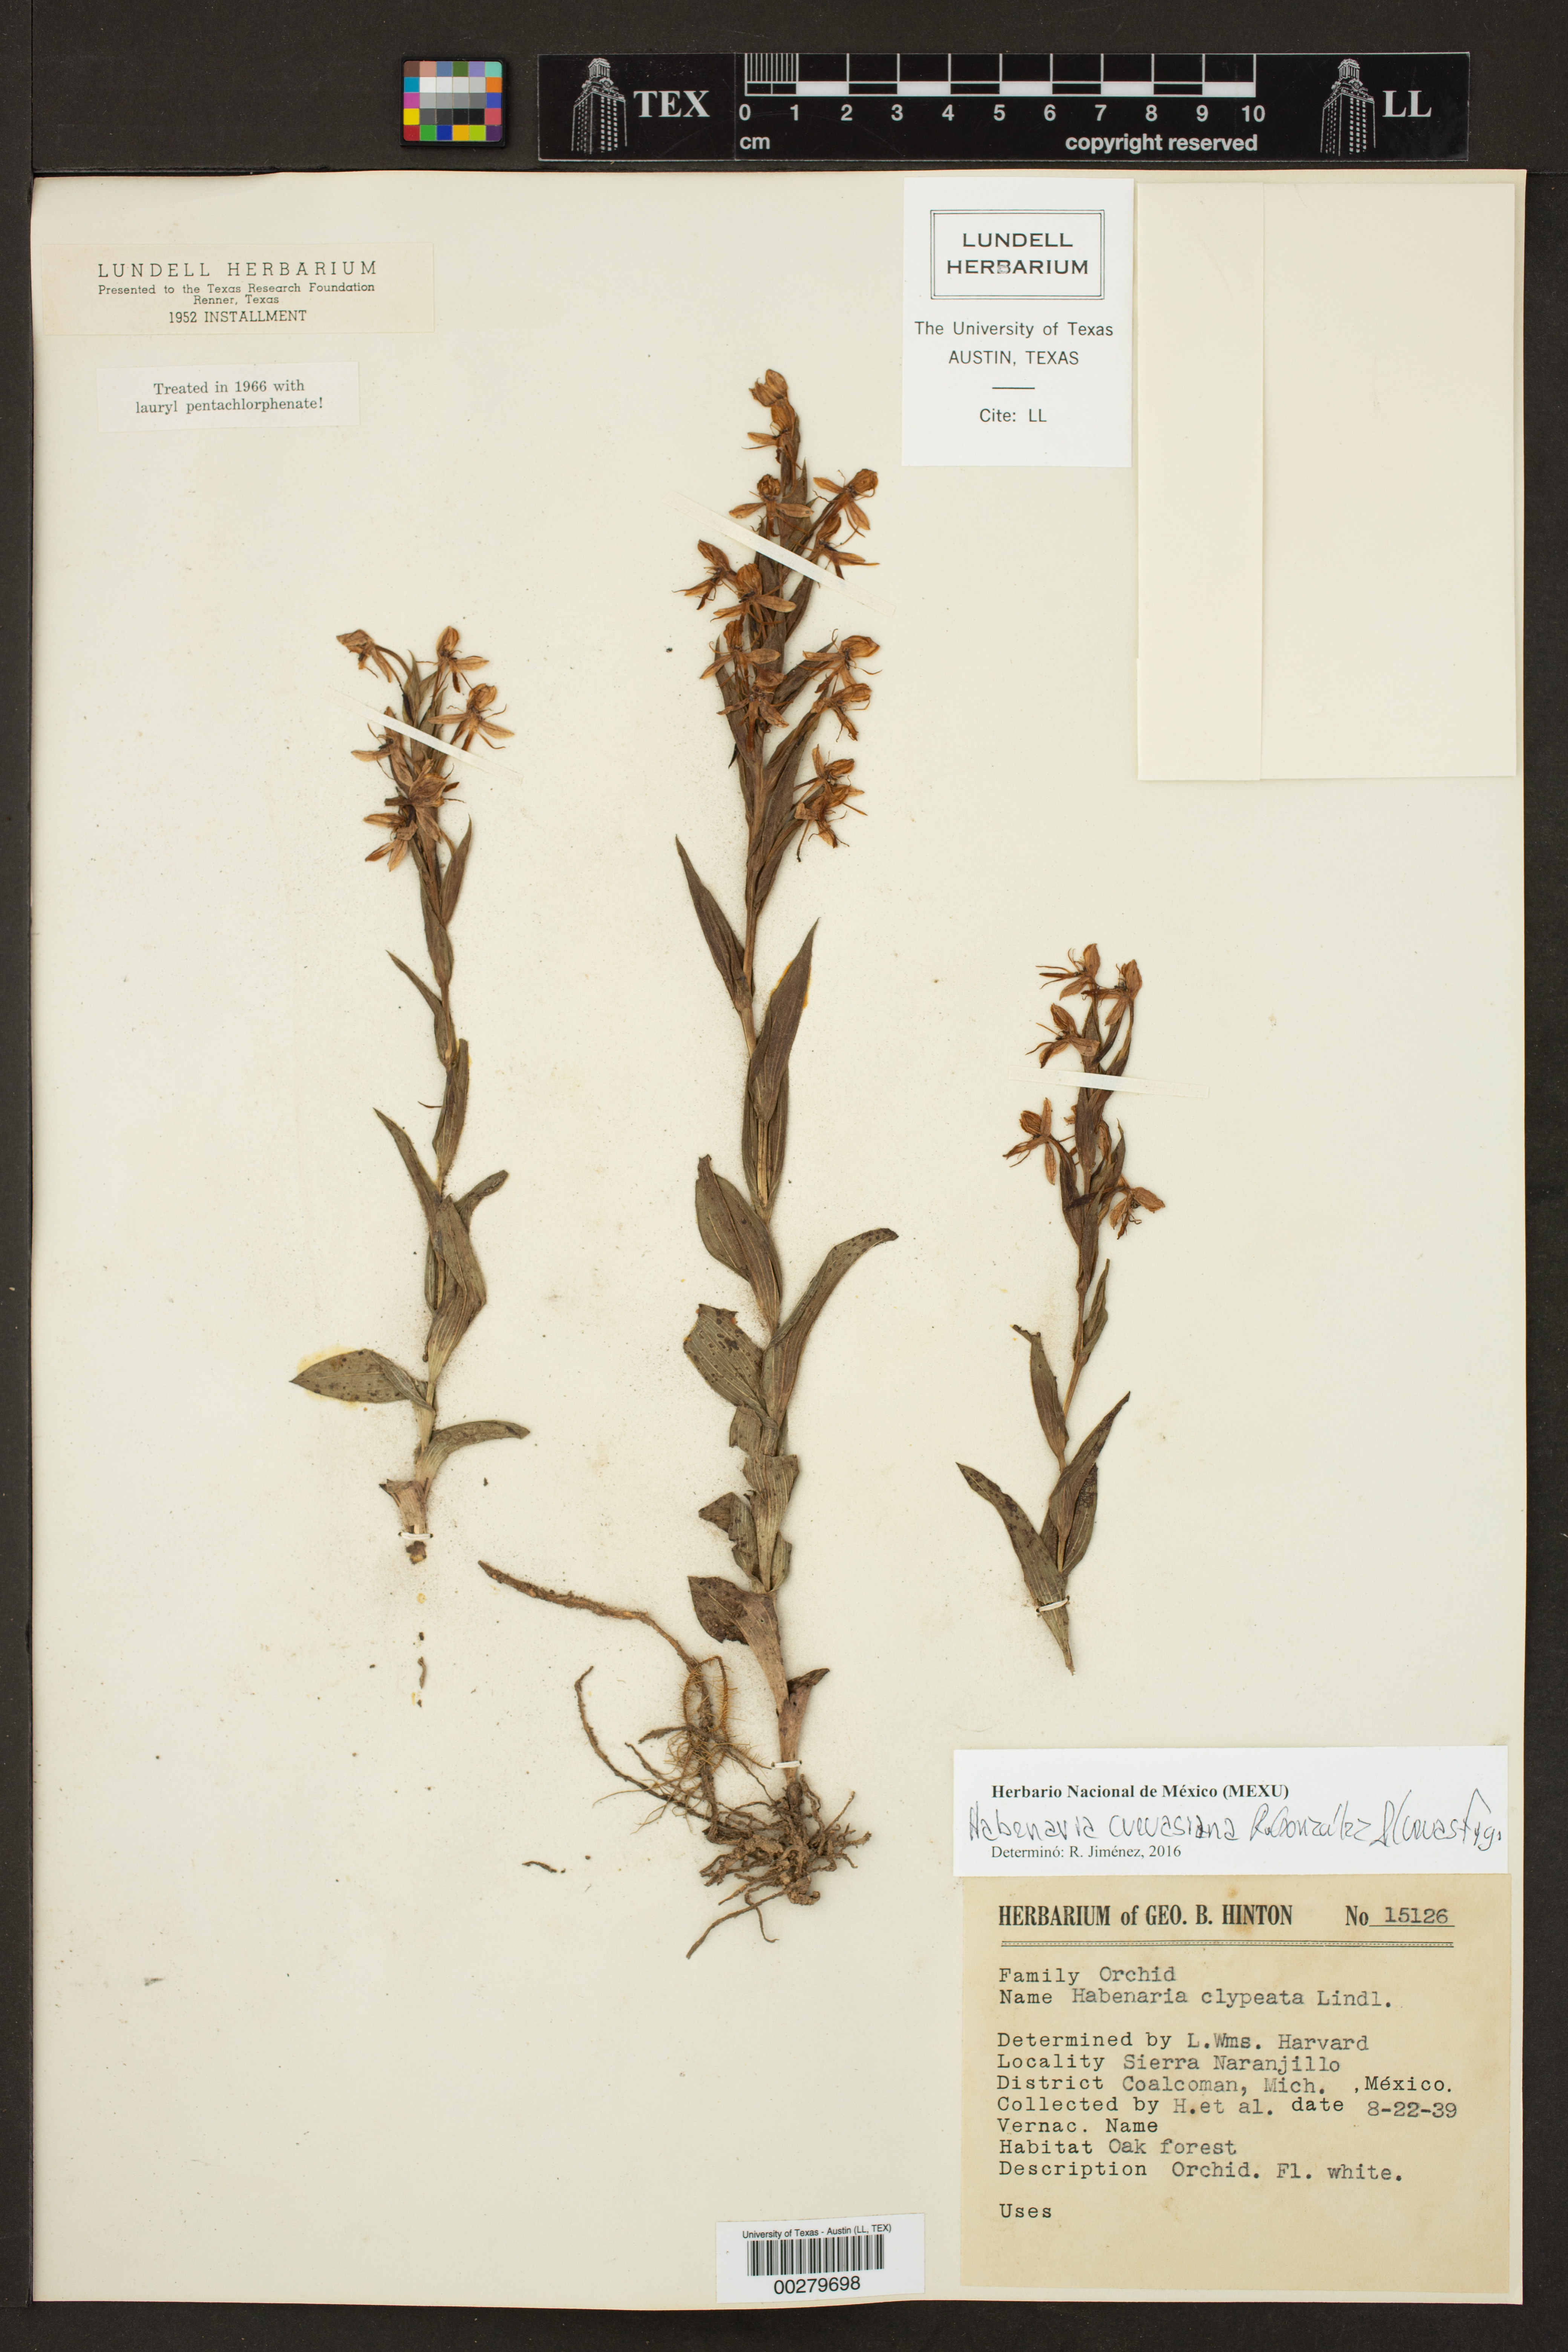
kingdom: Plantae
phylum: Tracheophyta
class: Liliopsida
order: Asparagales
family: Orchidaceae
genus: Habenaria
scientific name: Habenaria cuevasiana
